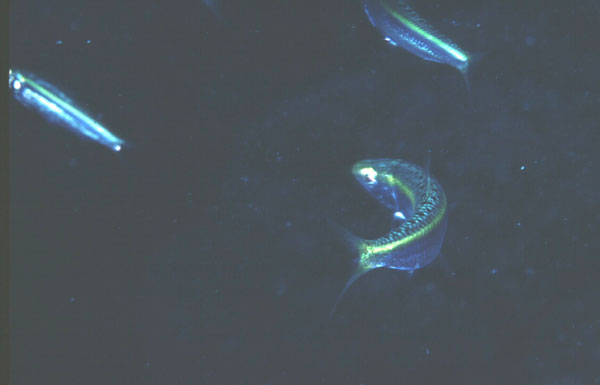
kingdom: Animalia
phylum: Chordata
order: Clupeiformes
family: Clupeidae
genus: Herklotsichthys
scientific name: Herklotsichthys
